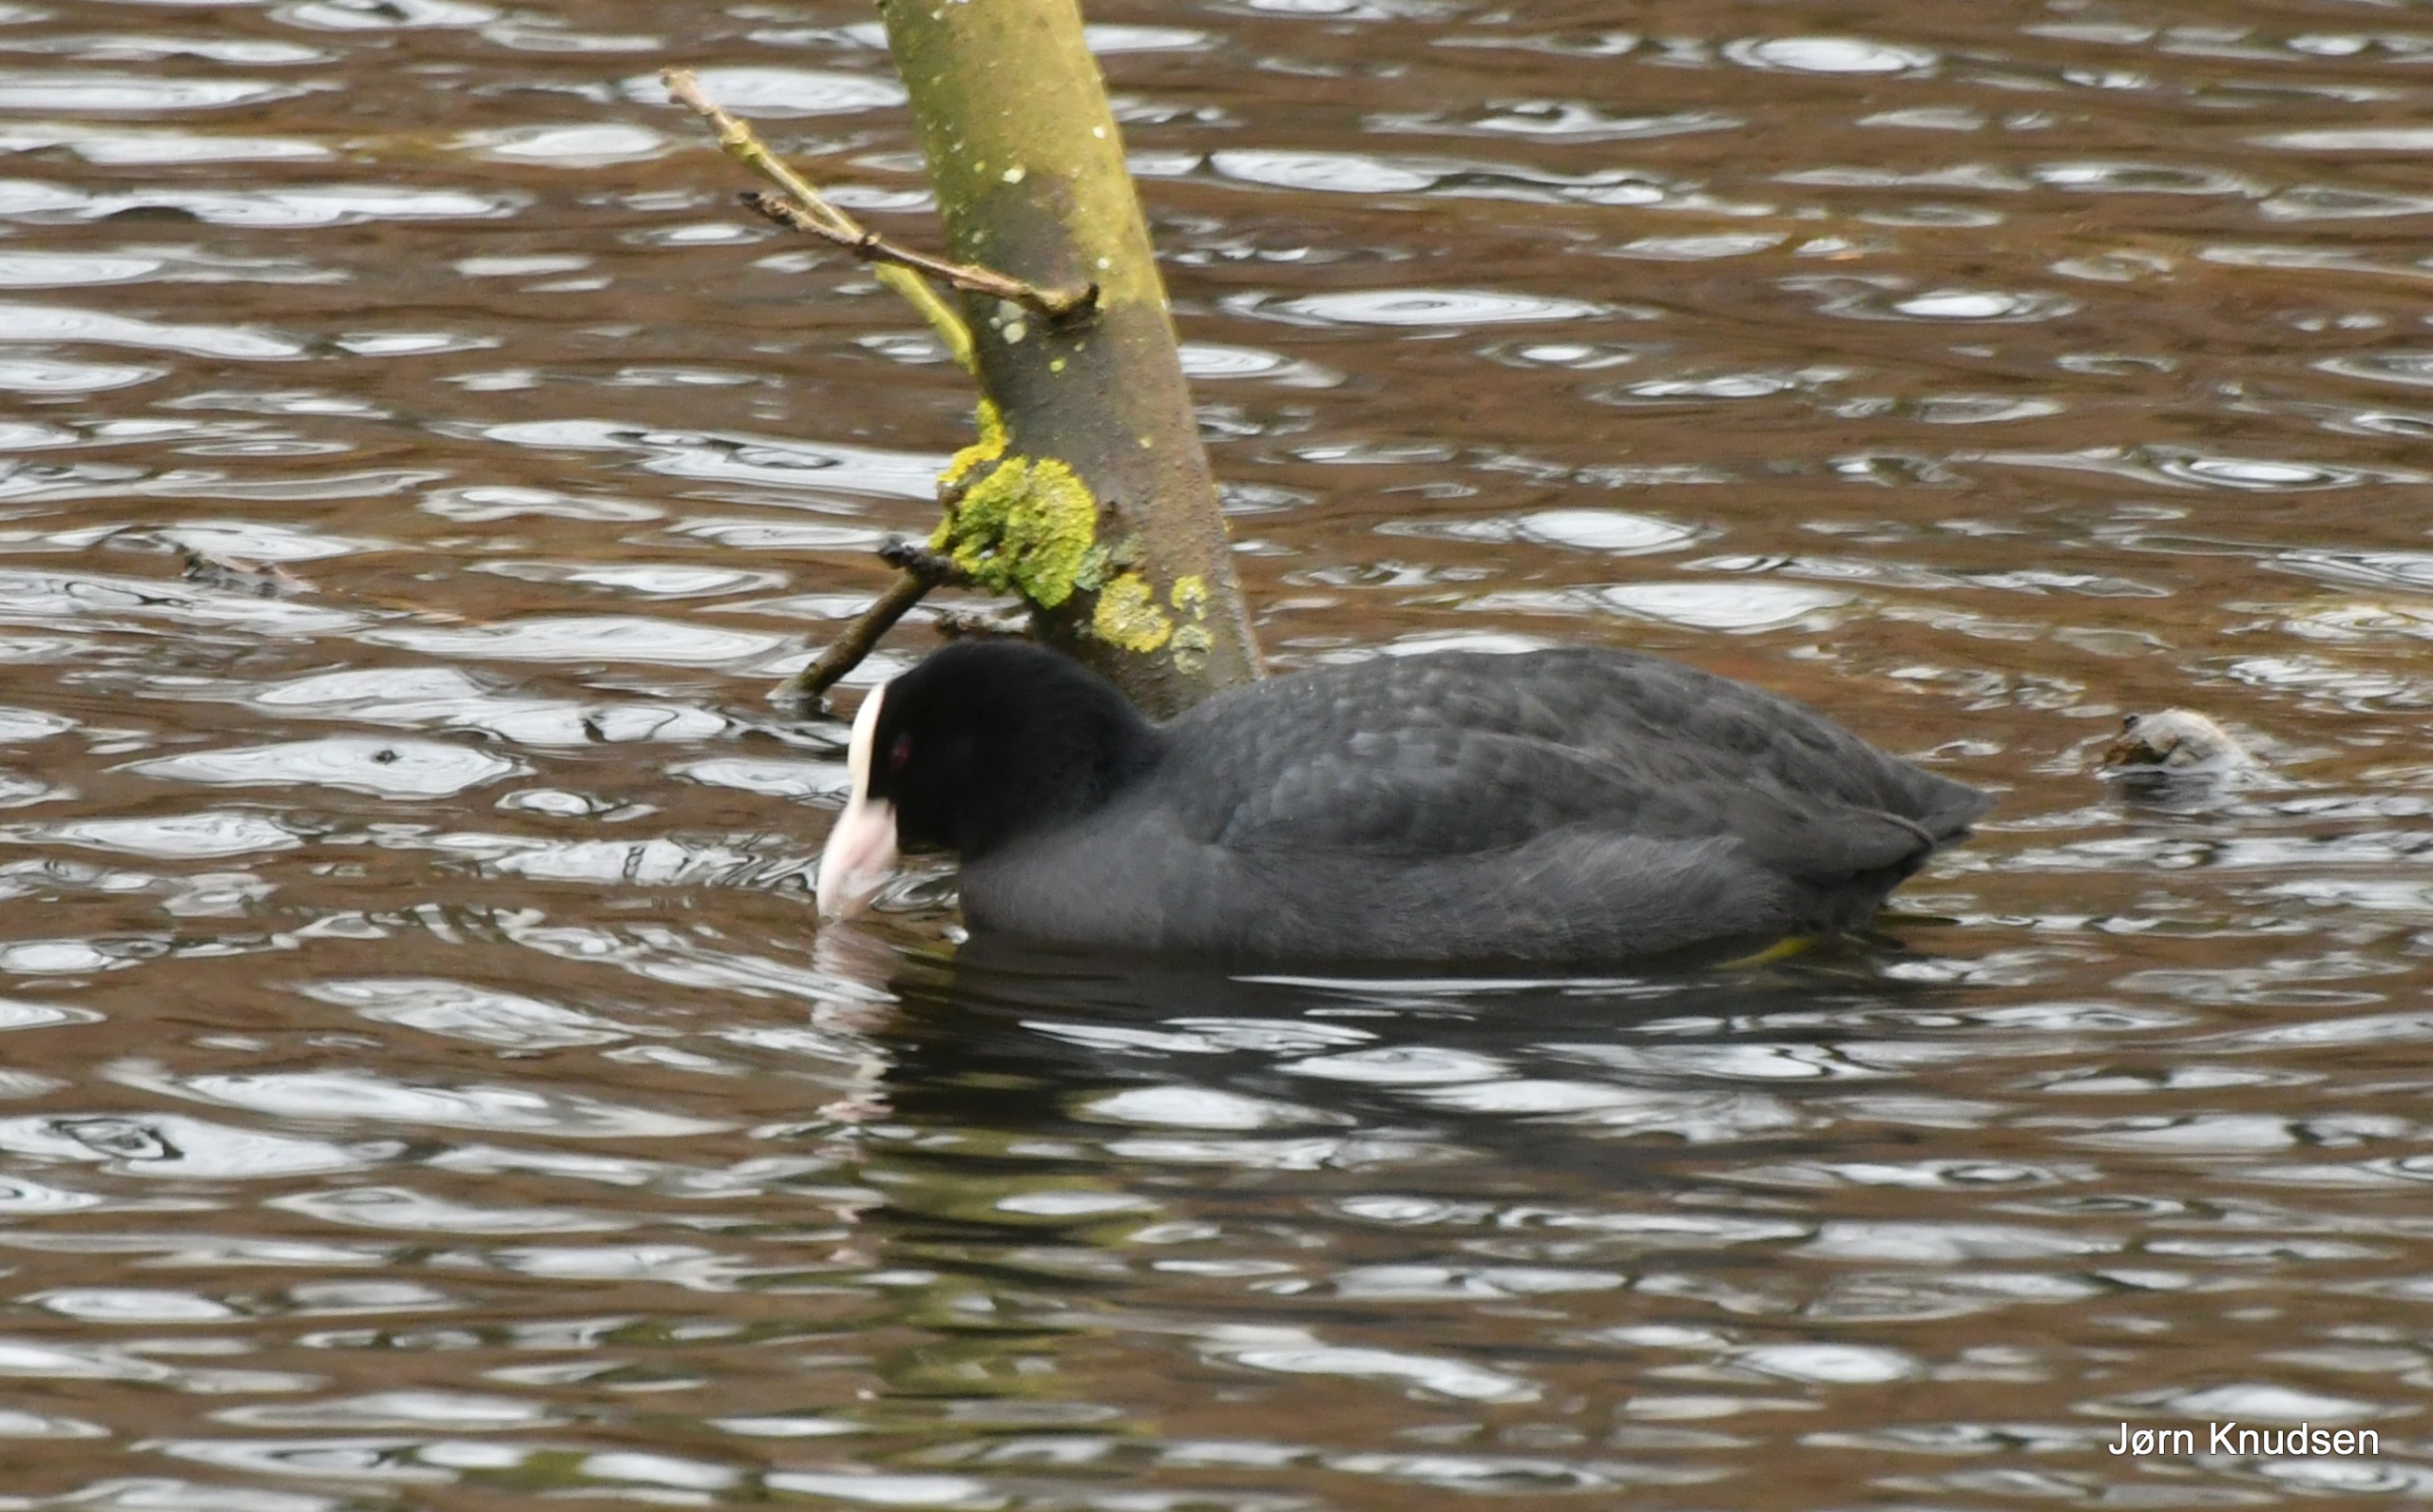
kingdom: Animalia
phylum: Chordata
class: Aves
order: Gruiformes
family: Rallidae
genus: Fulica
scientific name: Fulica atra
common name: Blishøne
